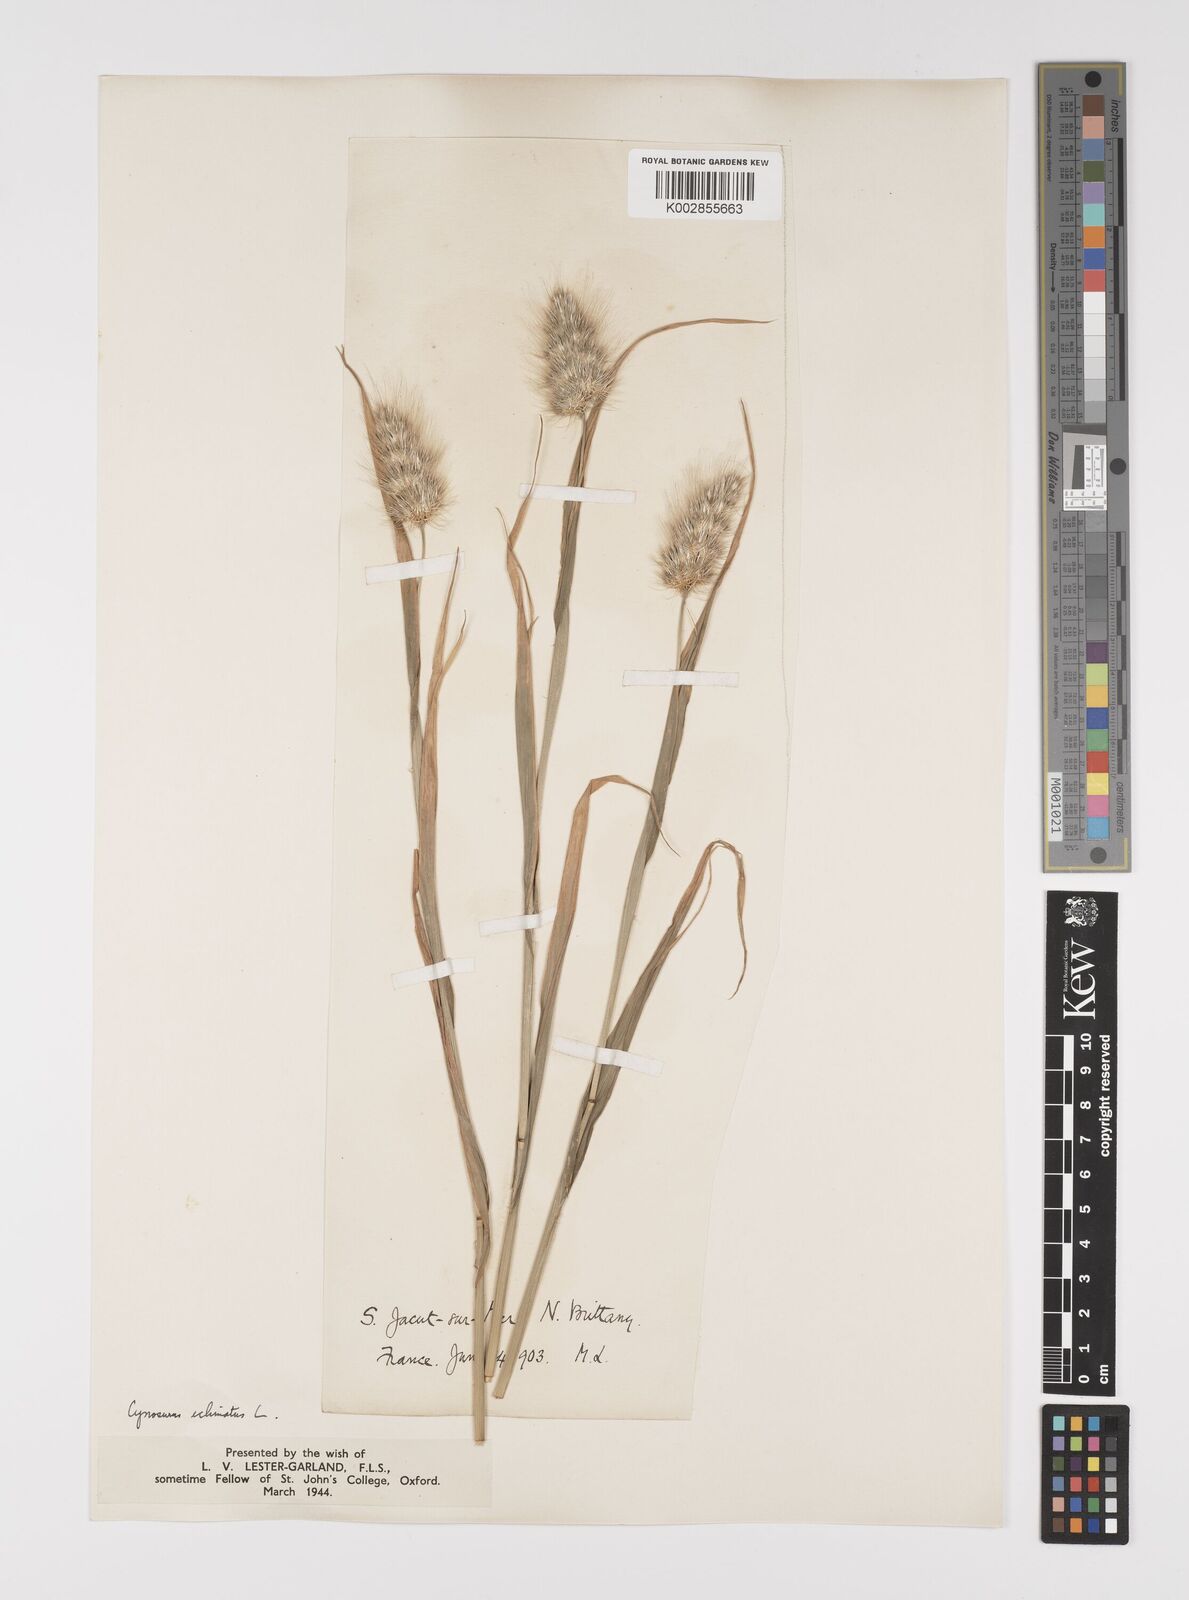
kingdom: Plantae
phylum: Tracheophyta
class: Liliopsida
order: Poales
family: Poaceae
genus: Cynosurus
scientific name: Cynosurus echinatus
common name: Rough dog's-tail
